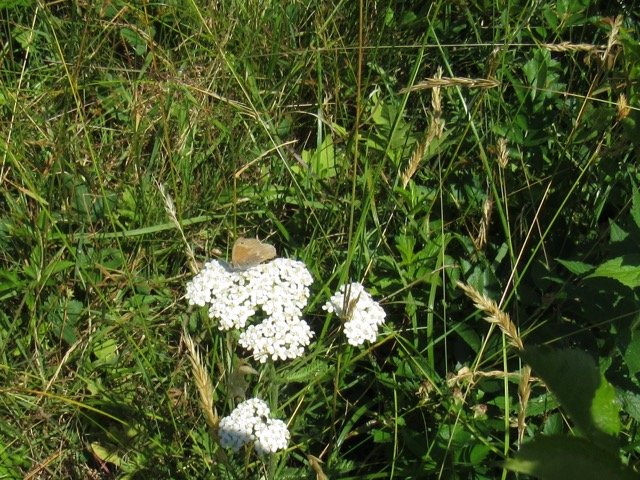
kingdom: Animalia
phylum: Arthropoda
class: Insecta
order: Lepidoptera
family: Nymphalidae
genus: Coenonympha
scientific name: Coenonympha tullia
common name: Large Heath
